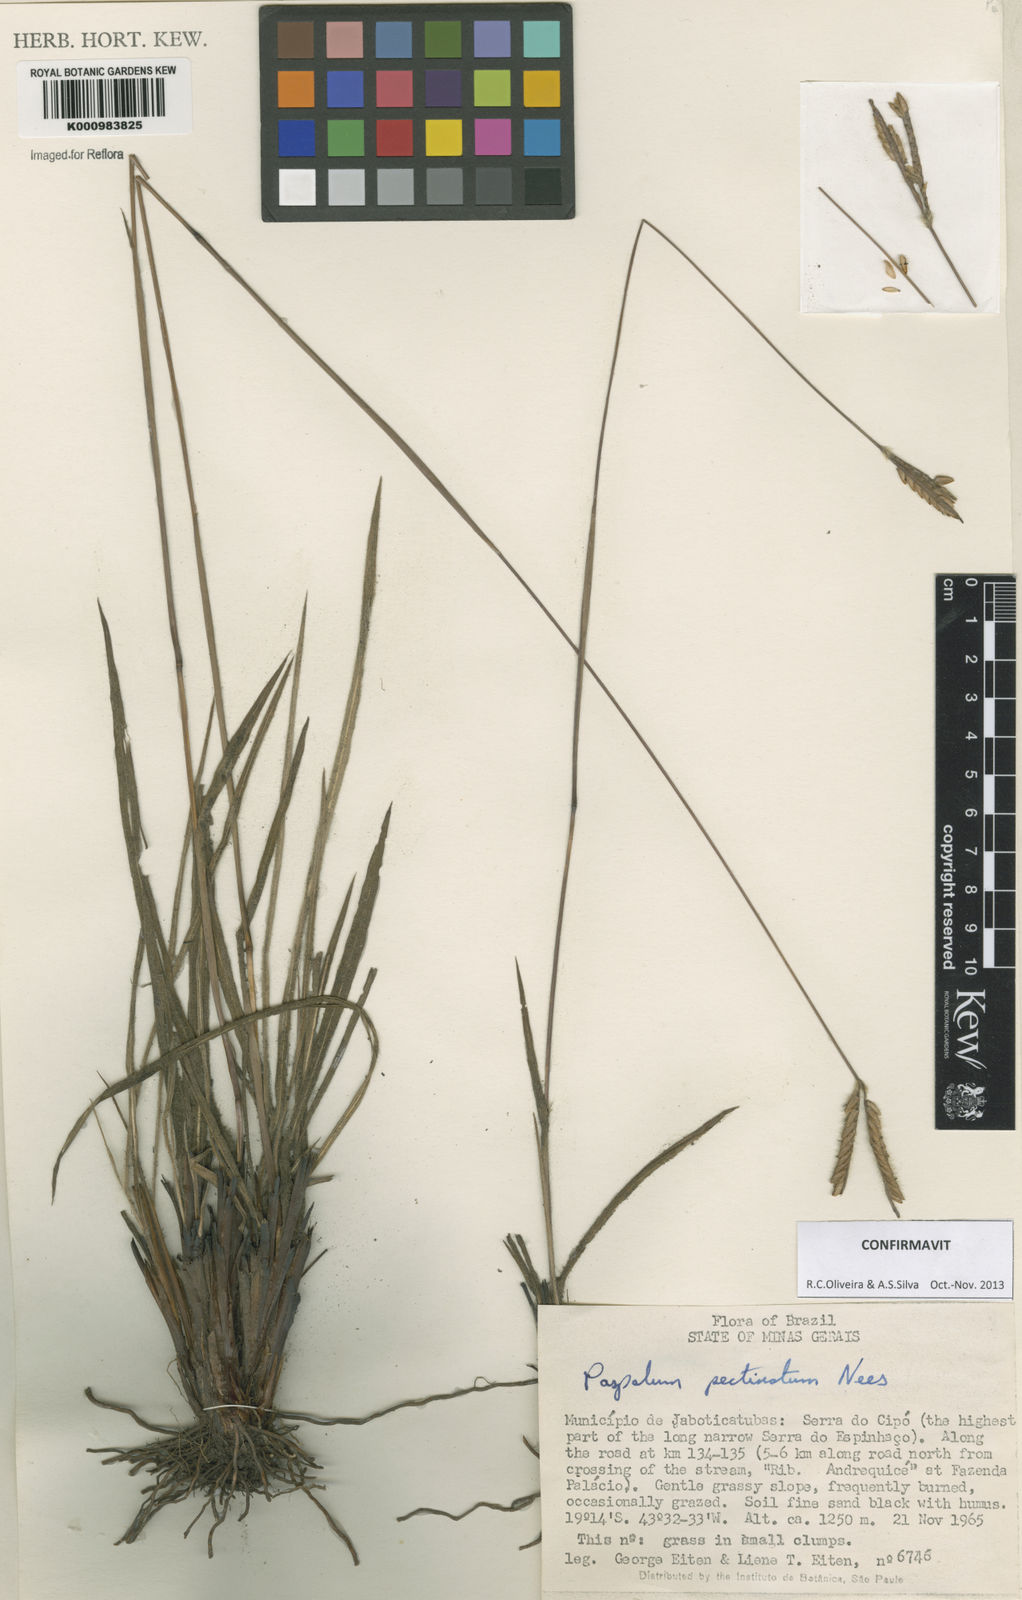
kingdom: Plantae
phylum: Tracheophyta
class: Liliopsida
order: Poales
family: Poaceae
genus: Paspalum
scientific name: Paspalum
